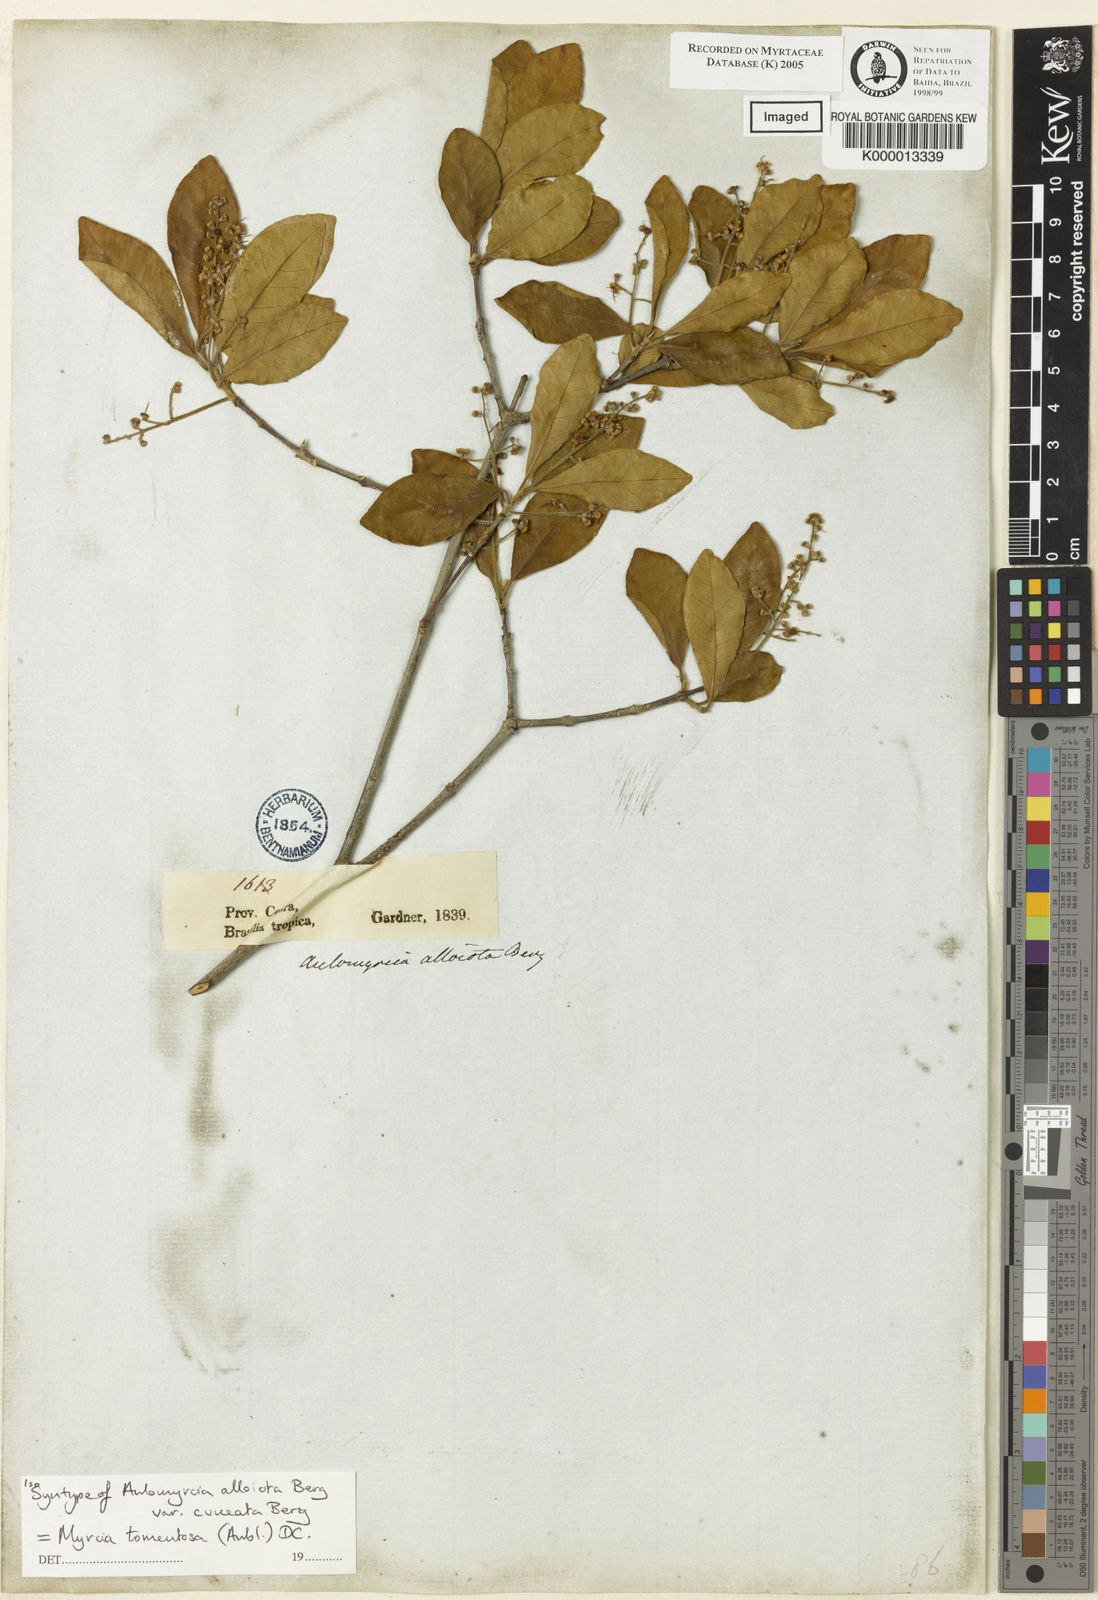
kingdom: Plantae
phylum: Tracheophyta
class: Magnoliopsida
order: Myrtales
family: Myrtaceae
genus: Myrcia
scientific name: Myrcia tomentosa
